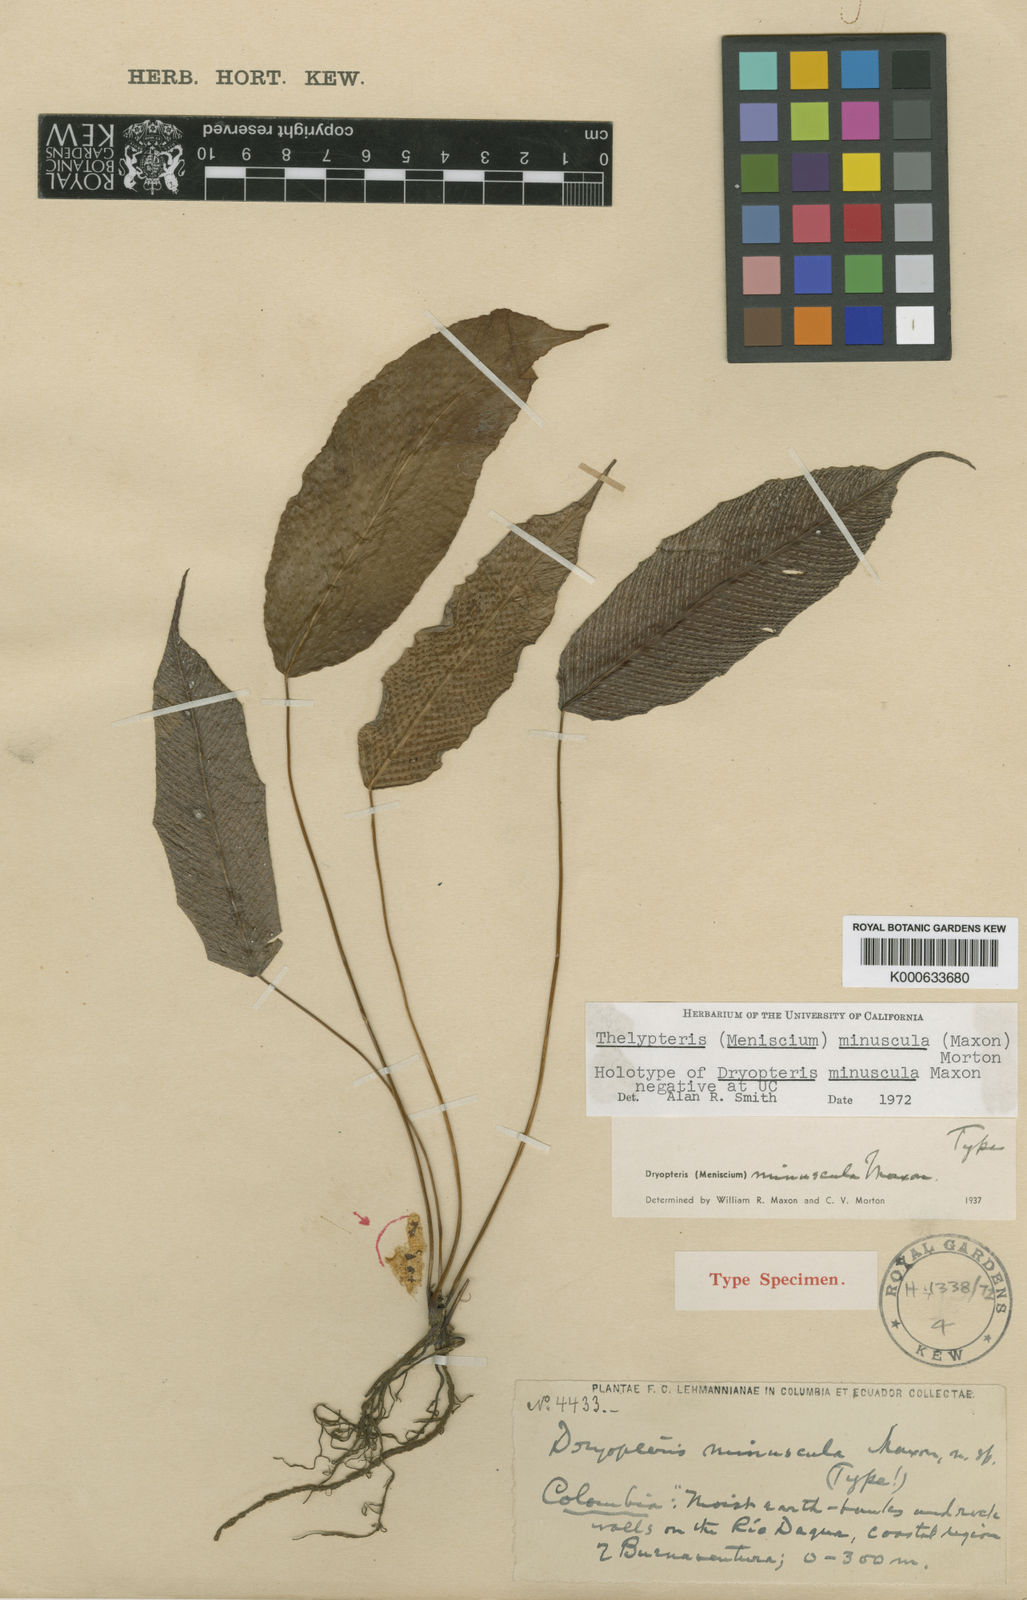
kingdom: Plantae
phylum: Tracheophyta
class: Polypodiopsida
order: Polypodiales
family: Thelypteridaceae
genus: Meniscium
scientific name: Meniscium minusculum
